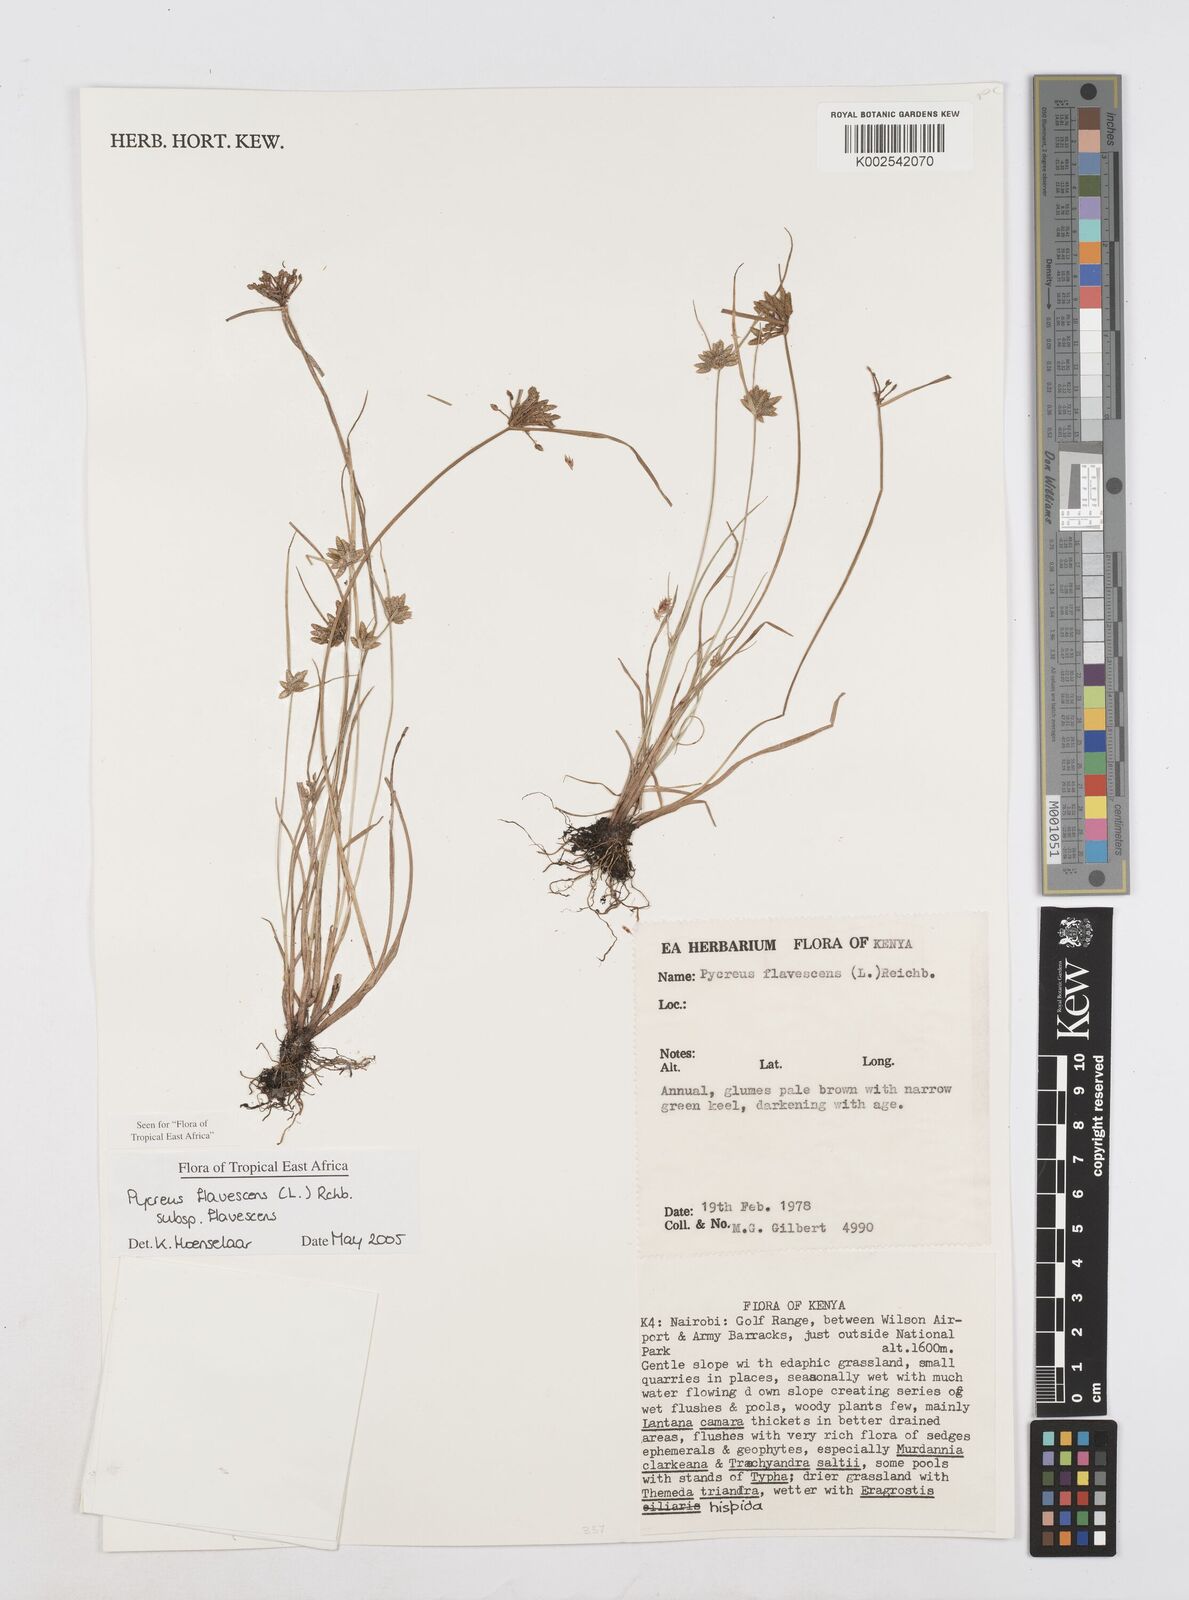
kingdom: Plantae
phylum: Tracheophyta
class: Liliopsida
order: Poales
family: Cyperaceae
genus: Cyperus
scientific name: Cyperus flavescens
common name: Yellow galingale
